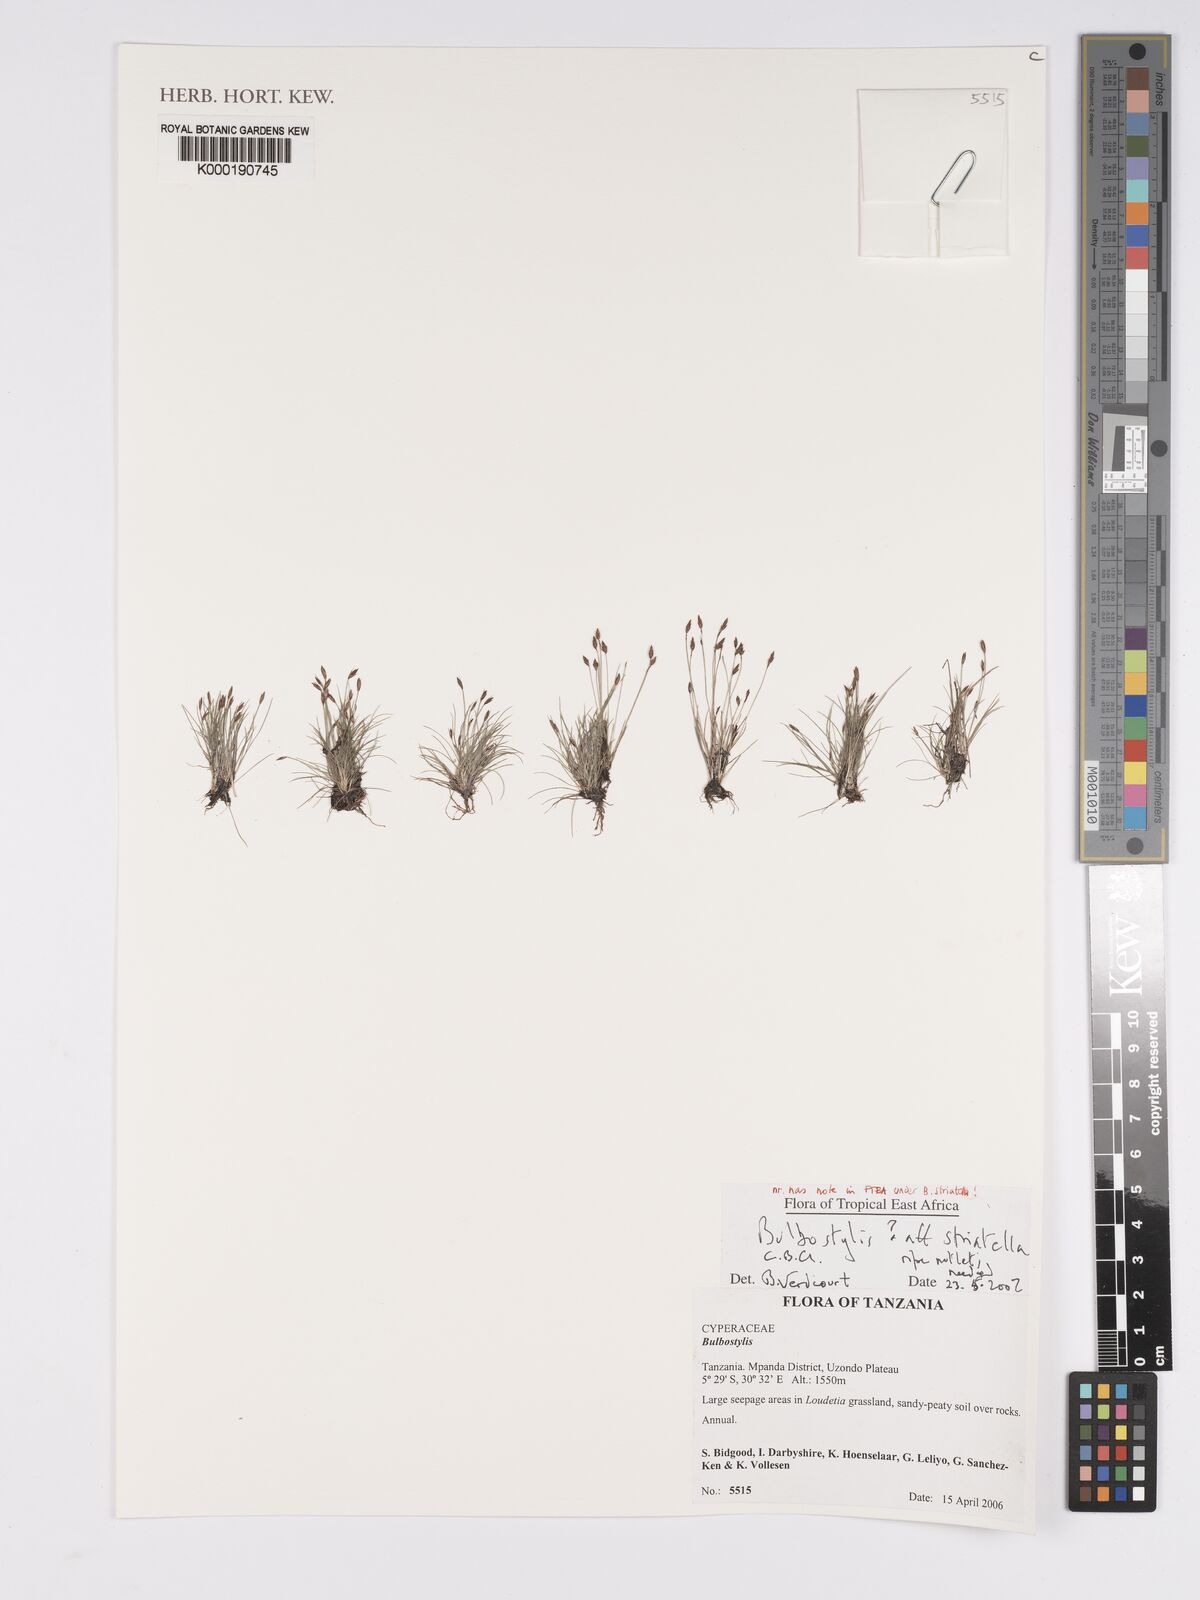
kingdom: Plantae
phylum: Tracheophyta
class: Liliopsida
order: Poales
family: Cyperaceae
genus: Bulbostylis
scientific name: Bulbostylis
